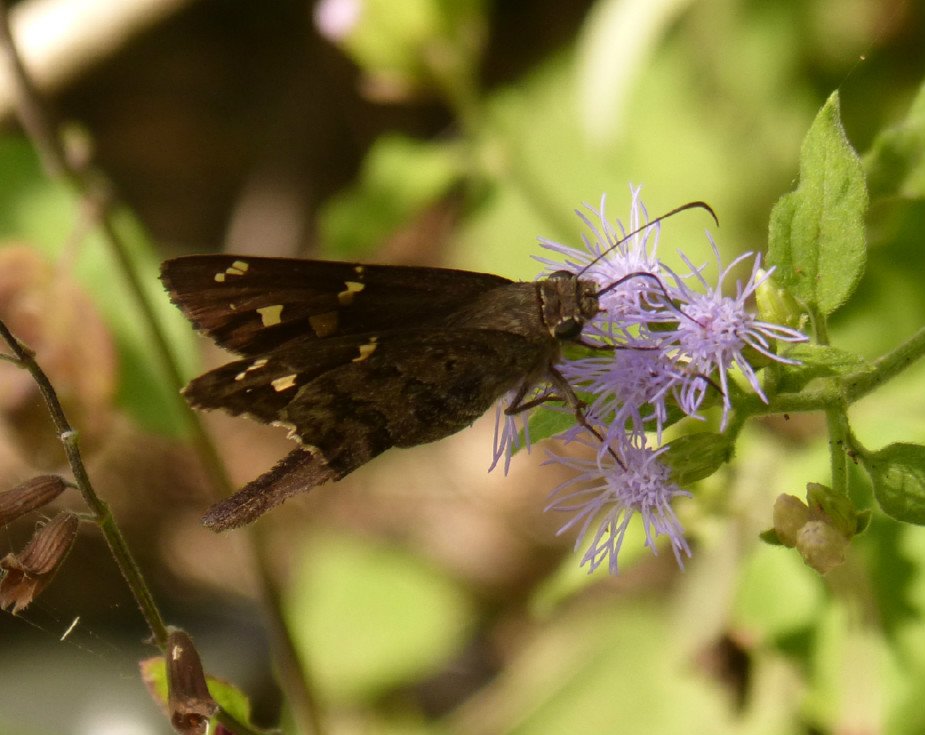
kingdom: Animalia
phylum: Arthropoda
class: Insecta
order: Lepidoptera
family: Hesperiidae
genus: Urbanus
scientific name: Urbanus dorantes
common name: Dorantes Longtail
